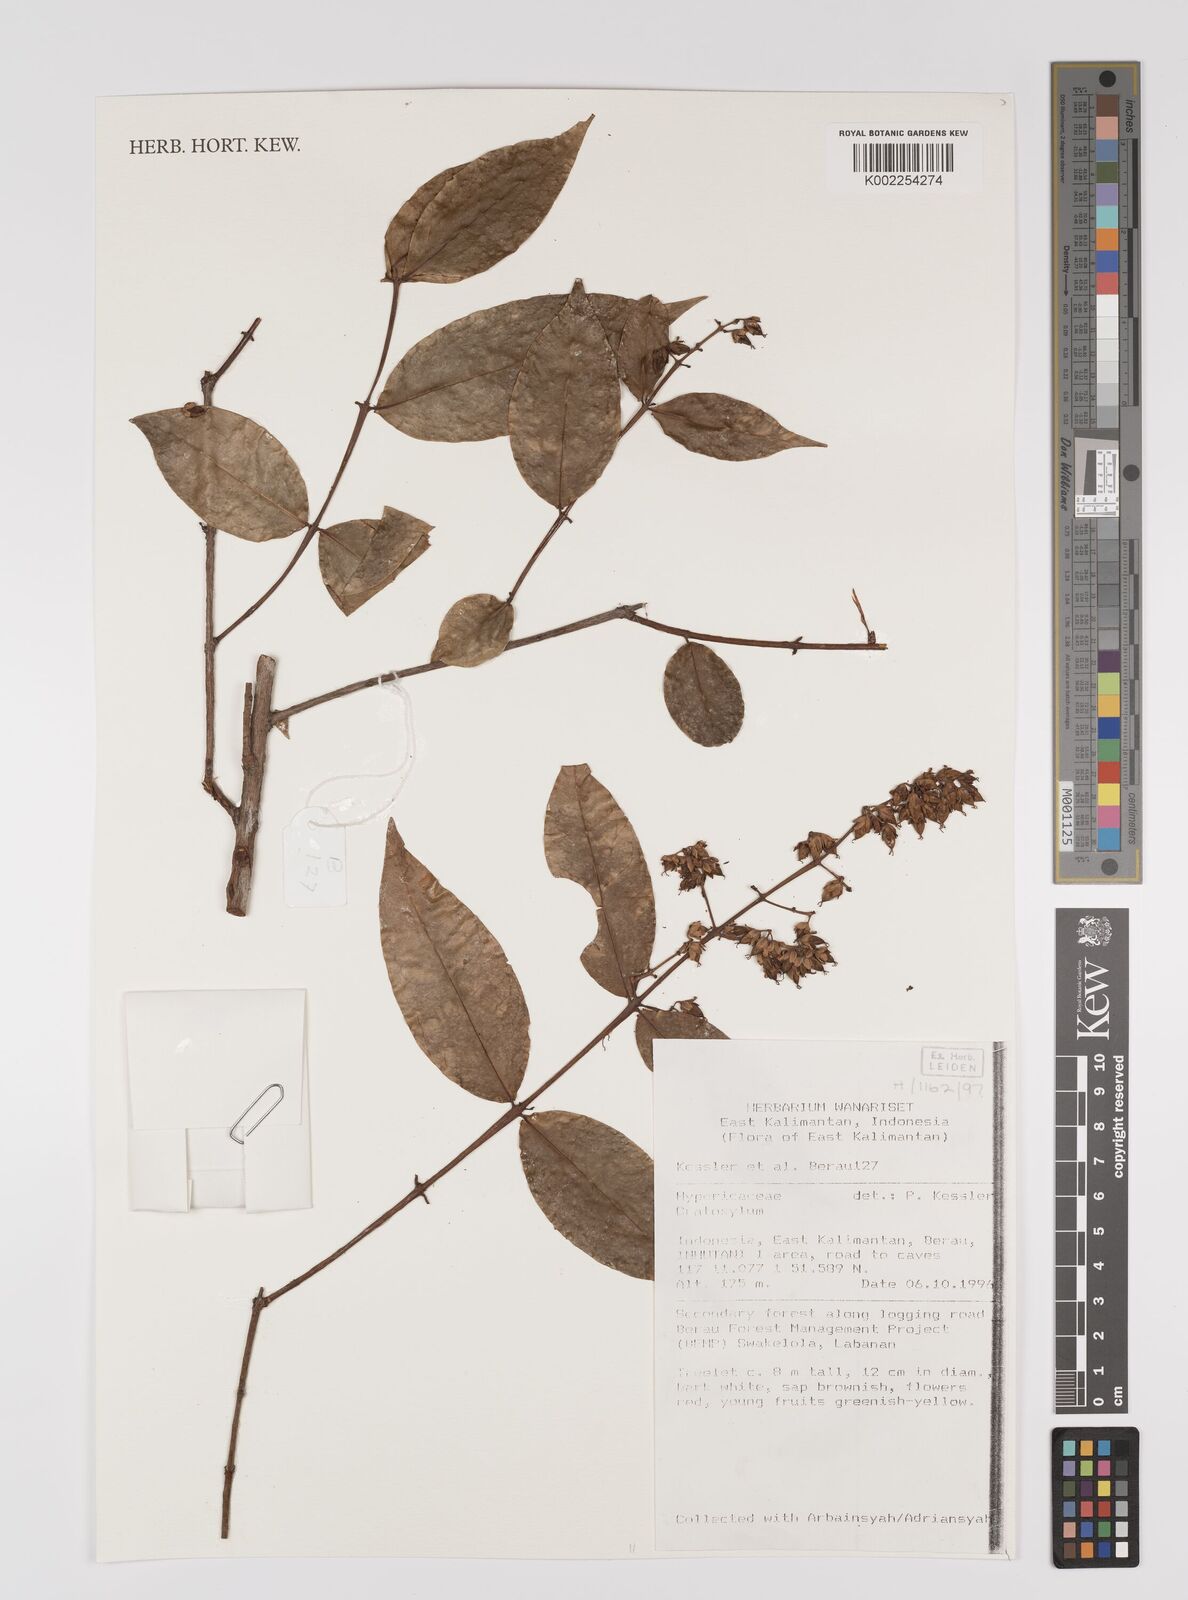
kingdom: Plantae
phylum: Tracheophyta
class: Magnoliopsida
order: Malpighiales
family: Hypericaceae
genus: Cratoxylum
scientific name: Cratoxylum
